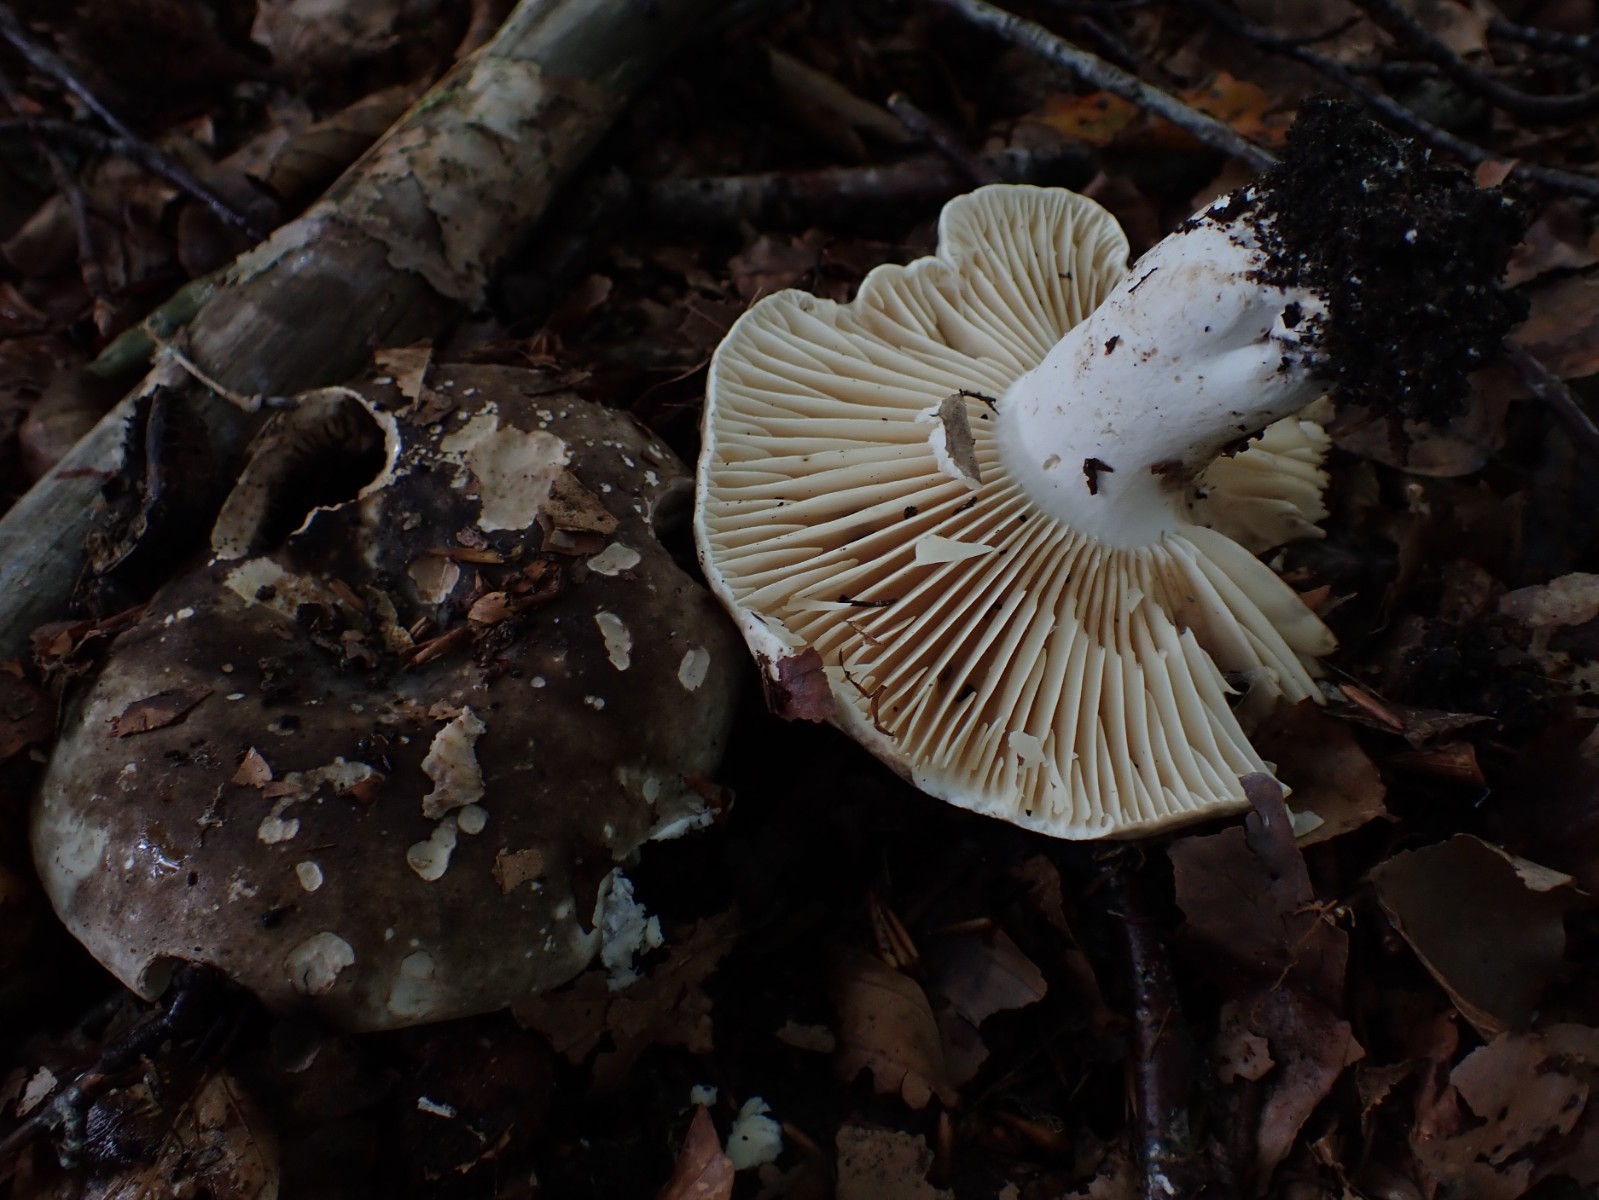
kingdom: Fungi
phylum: Basidiomycota
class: Agaricomycetes
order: Russulales
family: Russulaceae
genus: Russula
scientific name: Russula adusta
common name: sværtende skørhat
